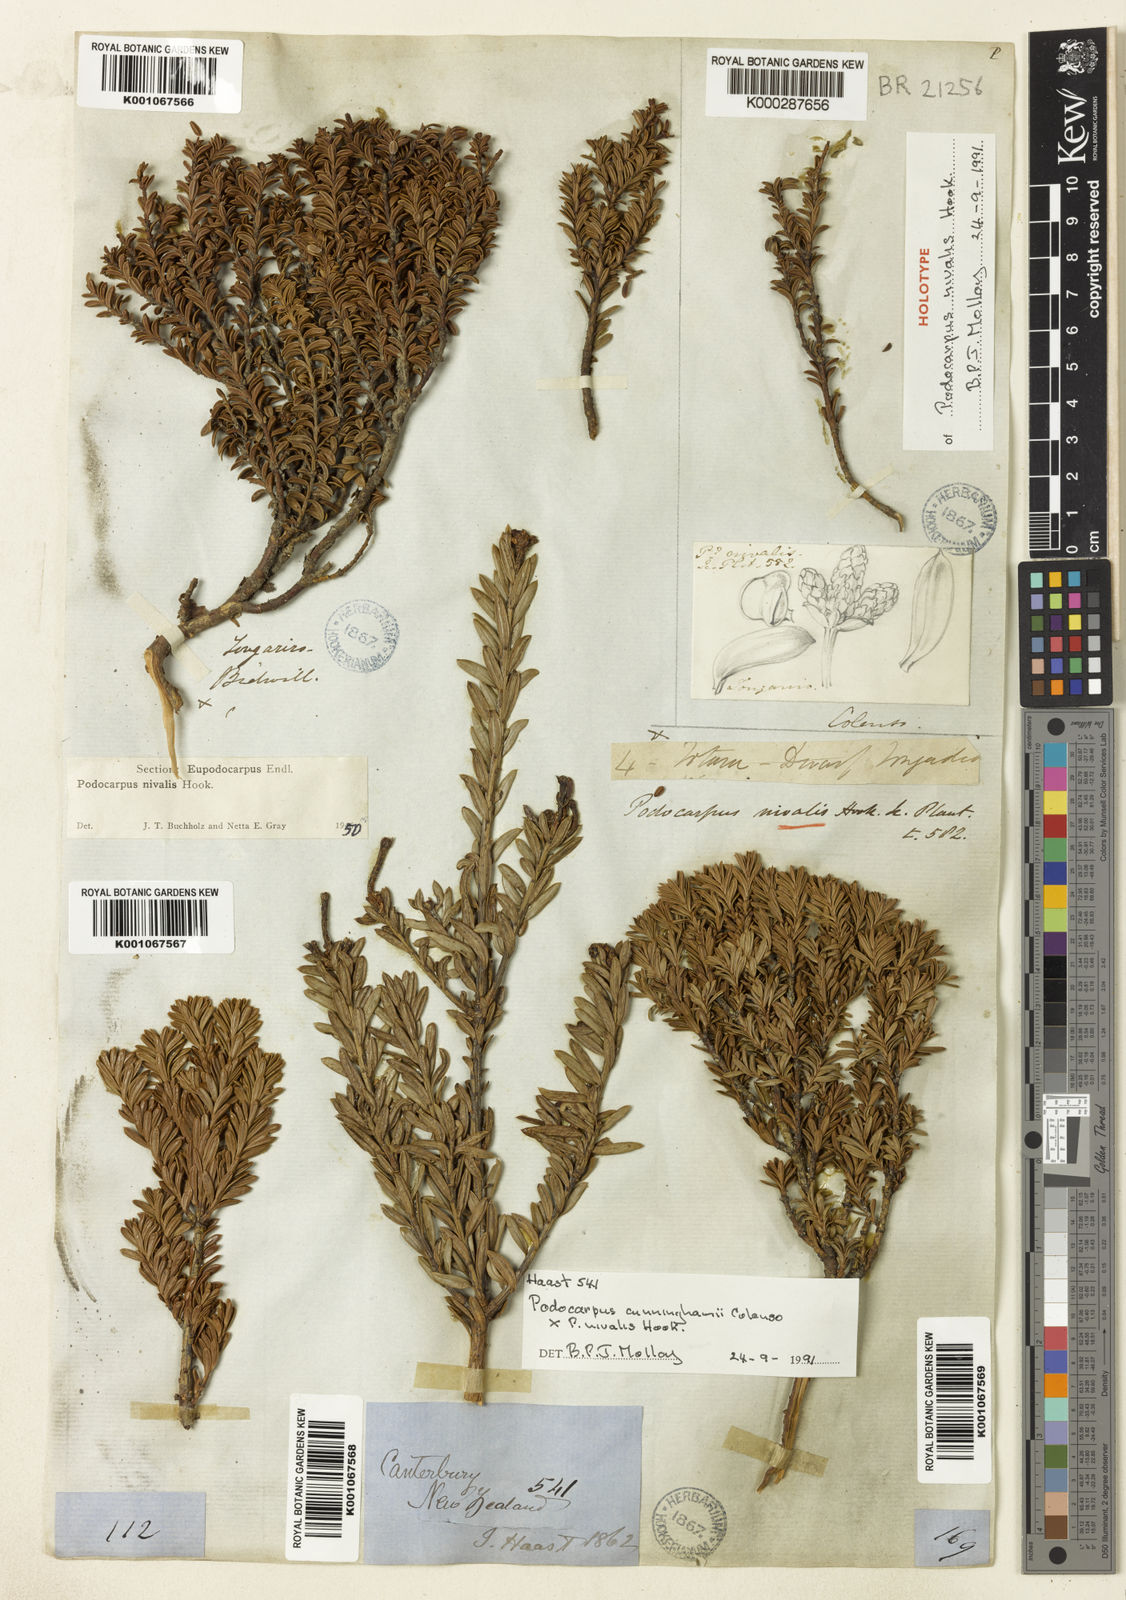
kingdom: Plantae
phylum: Tracheophyta
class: Pinopsida
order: Pinales
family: Podocarpaceae
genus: Podocarpus
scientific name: Podocarpus nivalis
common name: Alpine totara
